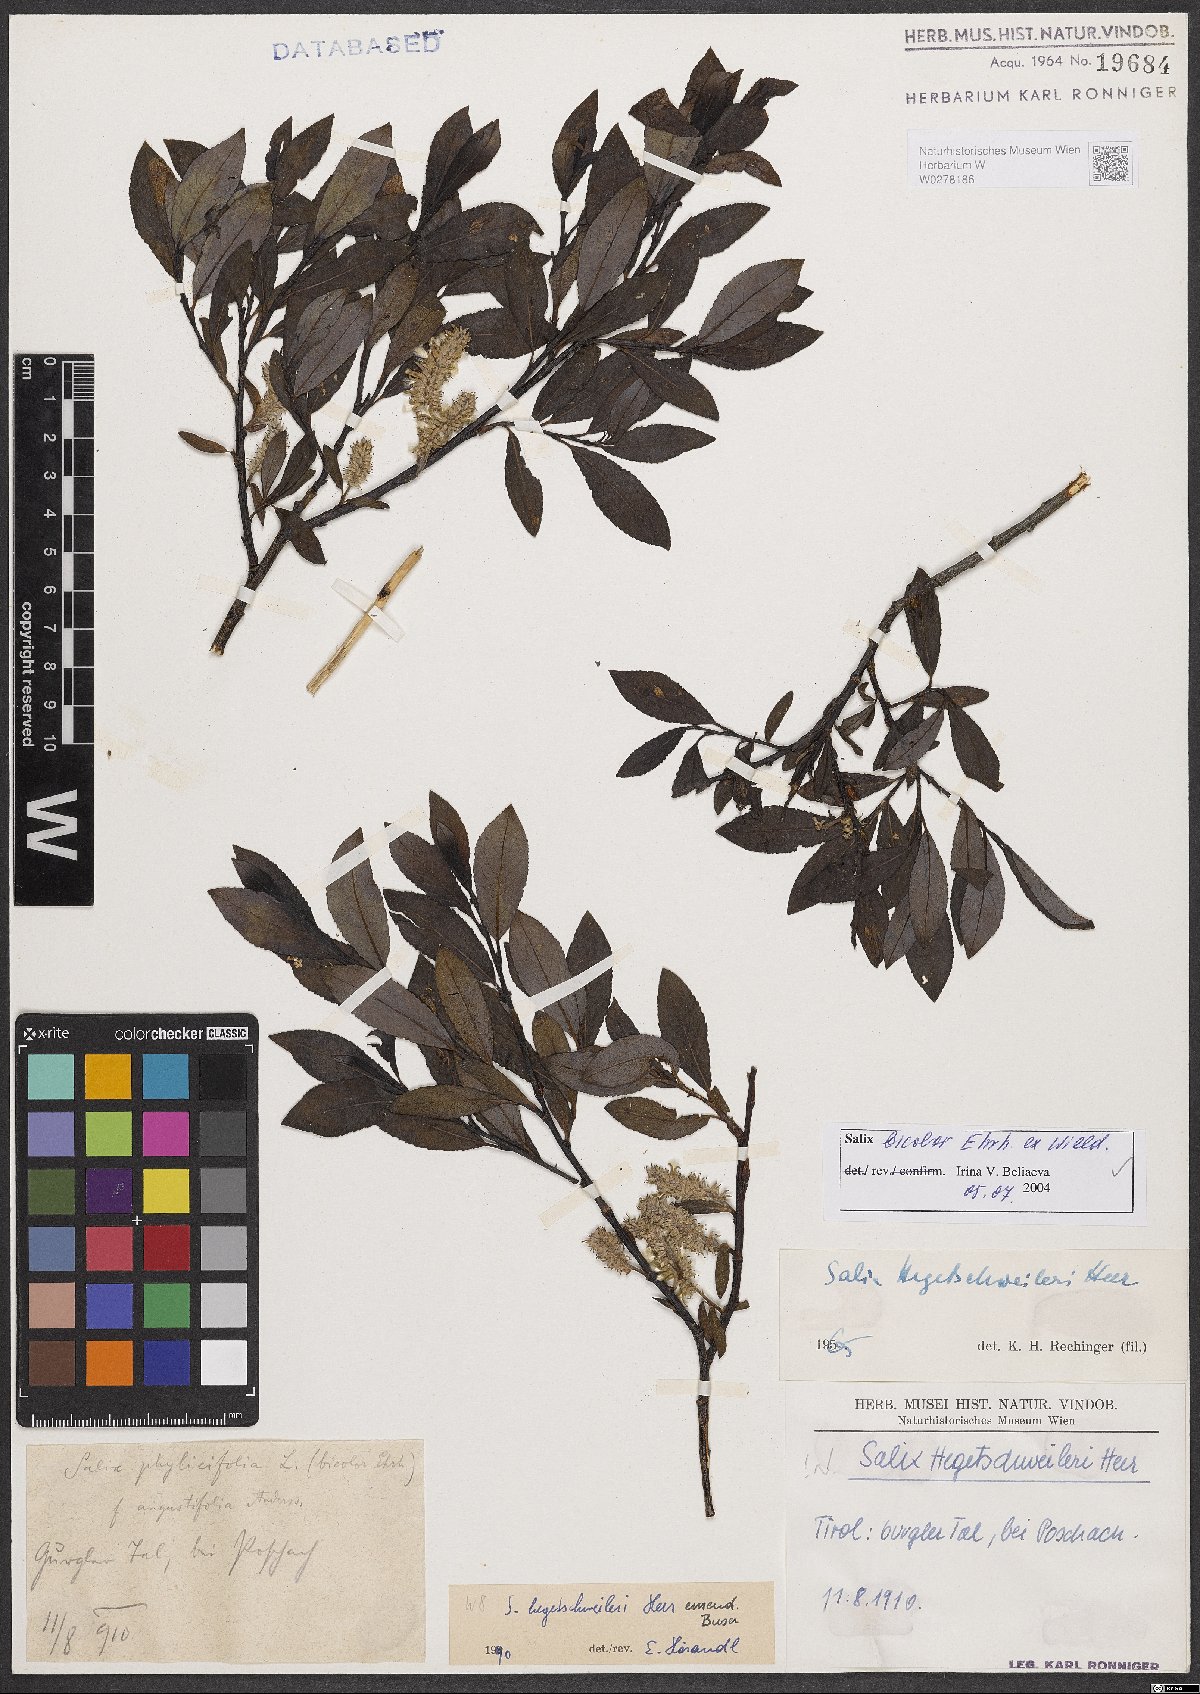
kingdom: Plantae
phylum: Tracheophyta
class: Magnoliopsida
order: Malpighiales
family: Salicaceae
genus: Salix
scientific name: Salix bicolor
